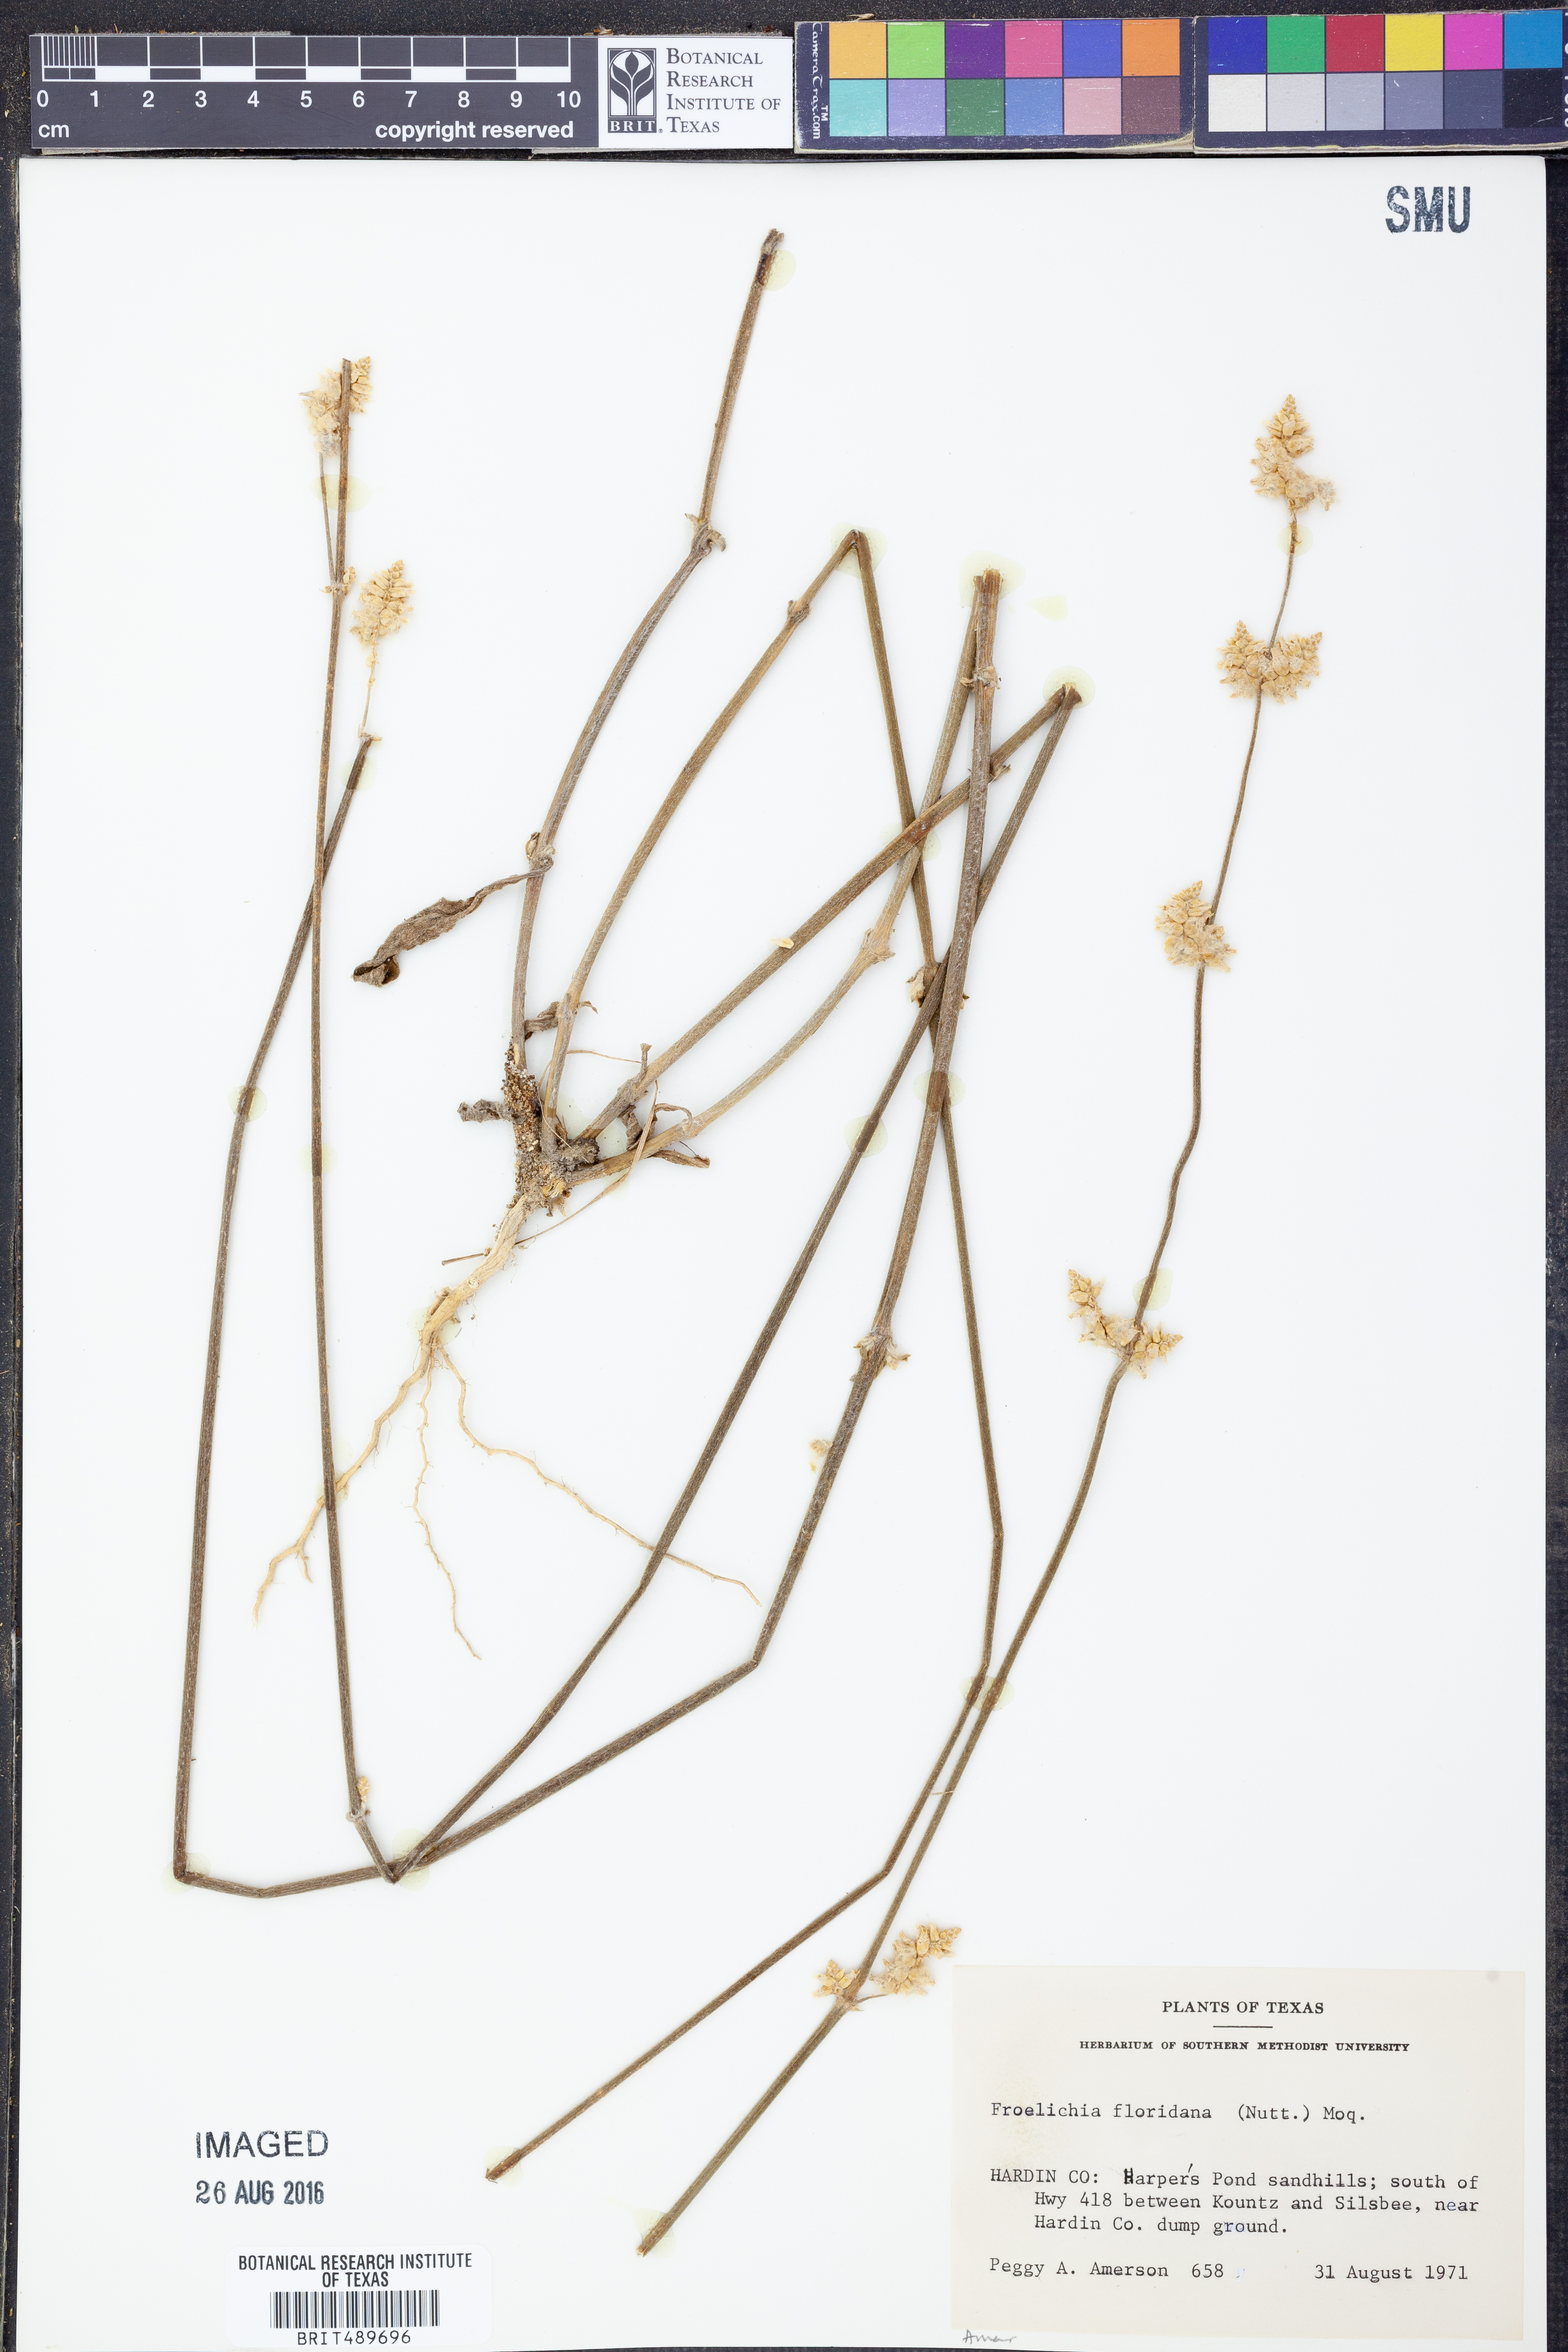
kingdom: Plantae
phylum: Tracheophyta
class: Magnoliopsida
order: Caryophyllales
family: Amaranthaceae
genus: Froelichia
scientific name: Froelichia floridana
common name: Florida snake-cotton
